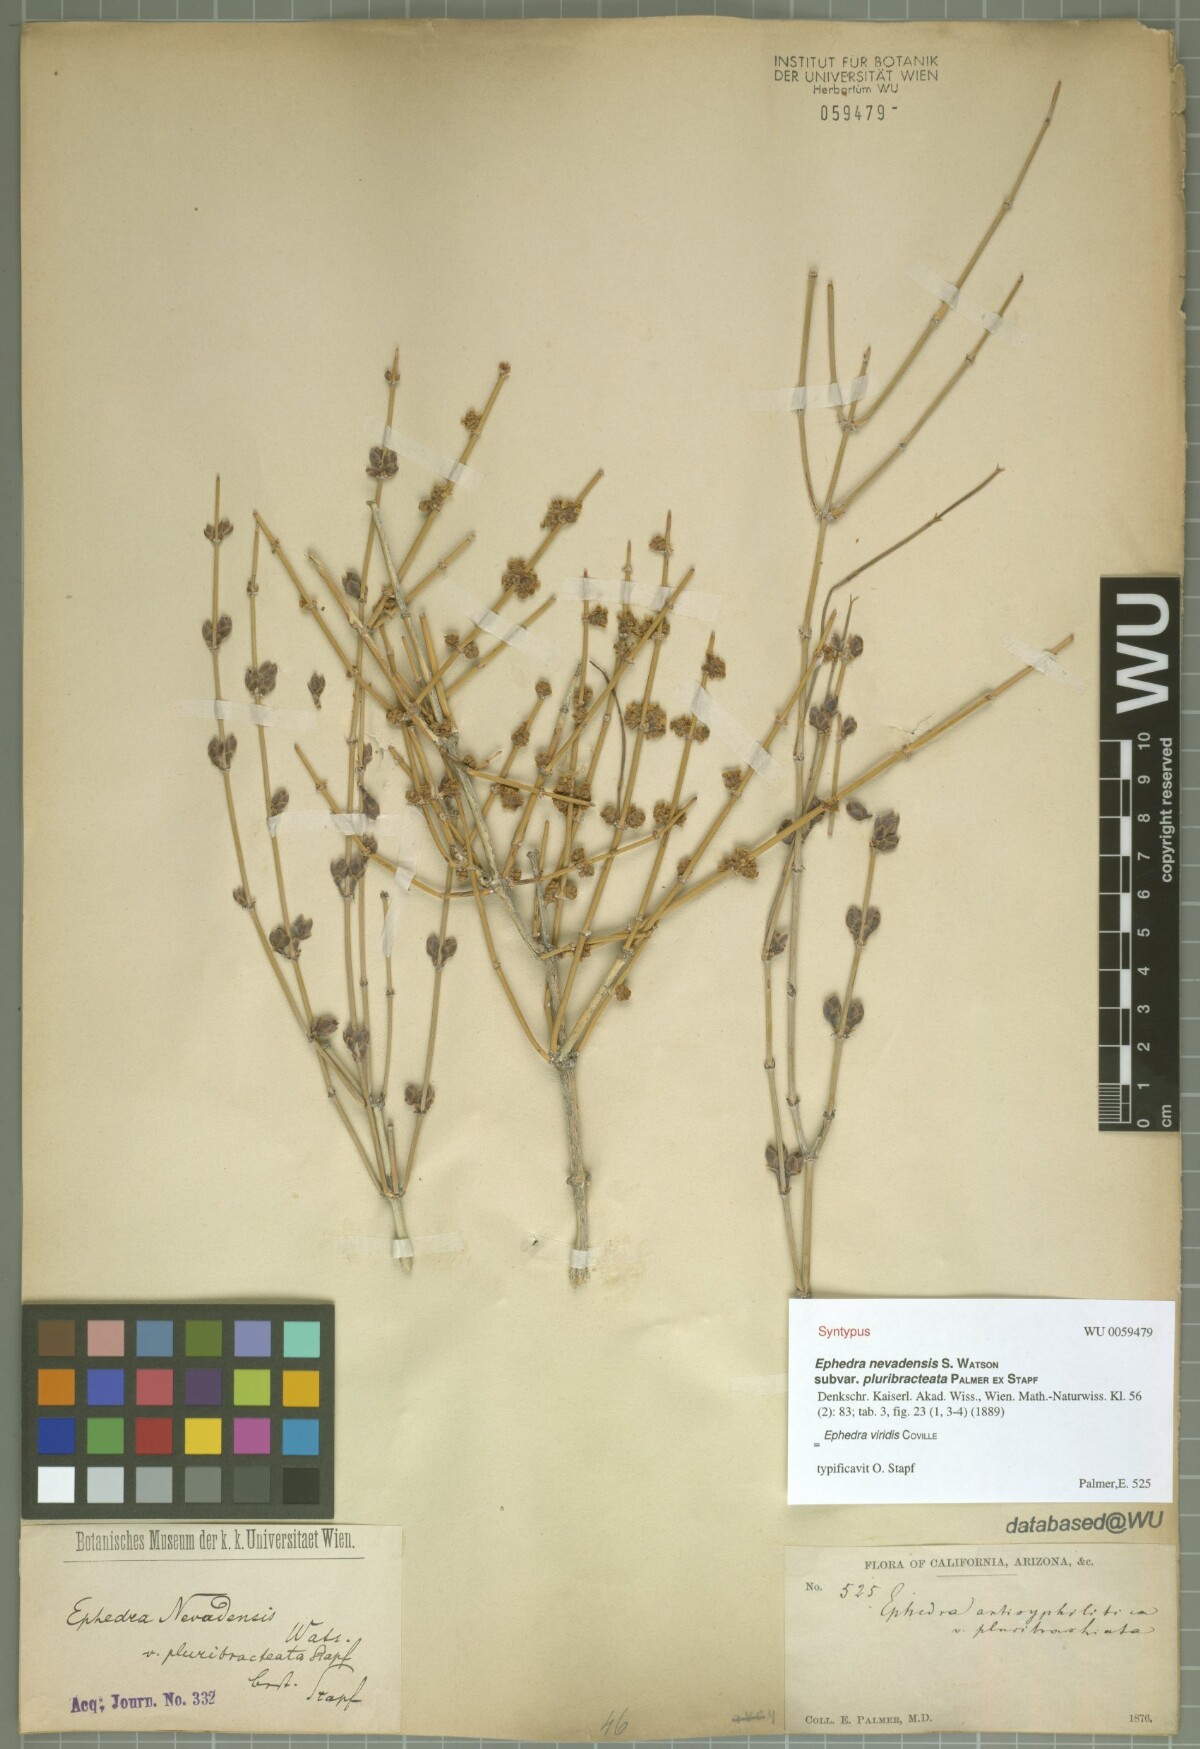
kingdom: Plantae
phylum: Tracheophyta
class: Gnetopsida
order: Ephedrales
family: Ephedraceae
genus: Ephedra
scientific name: Ephedra viridis
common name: Green ephedra
